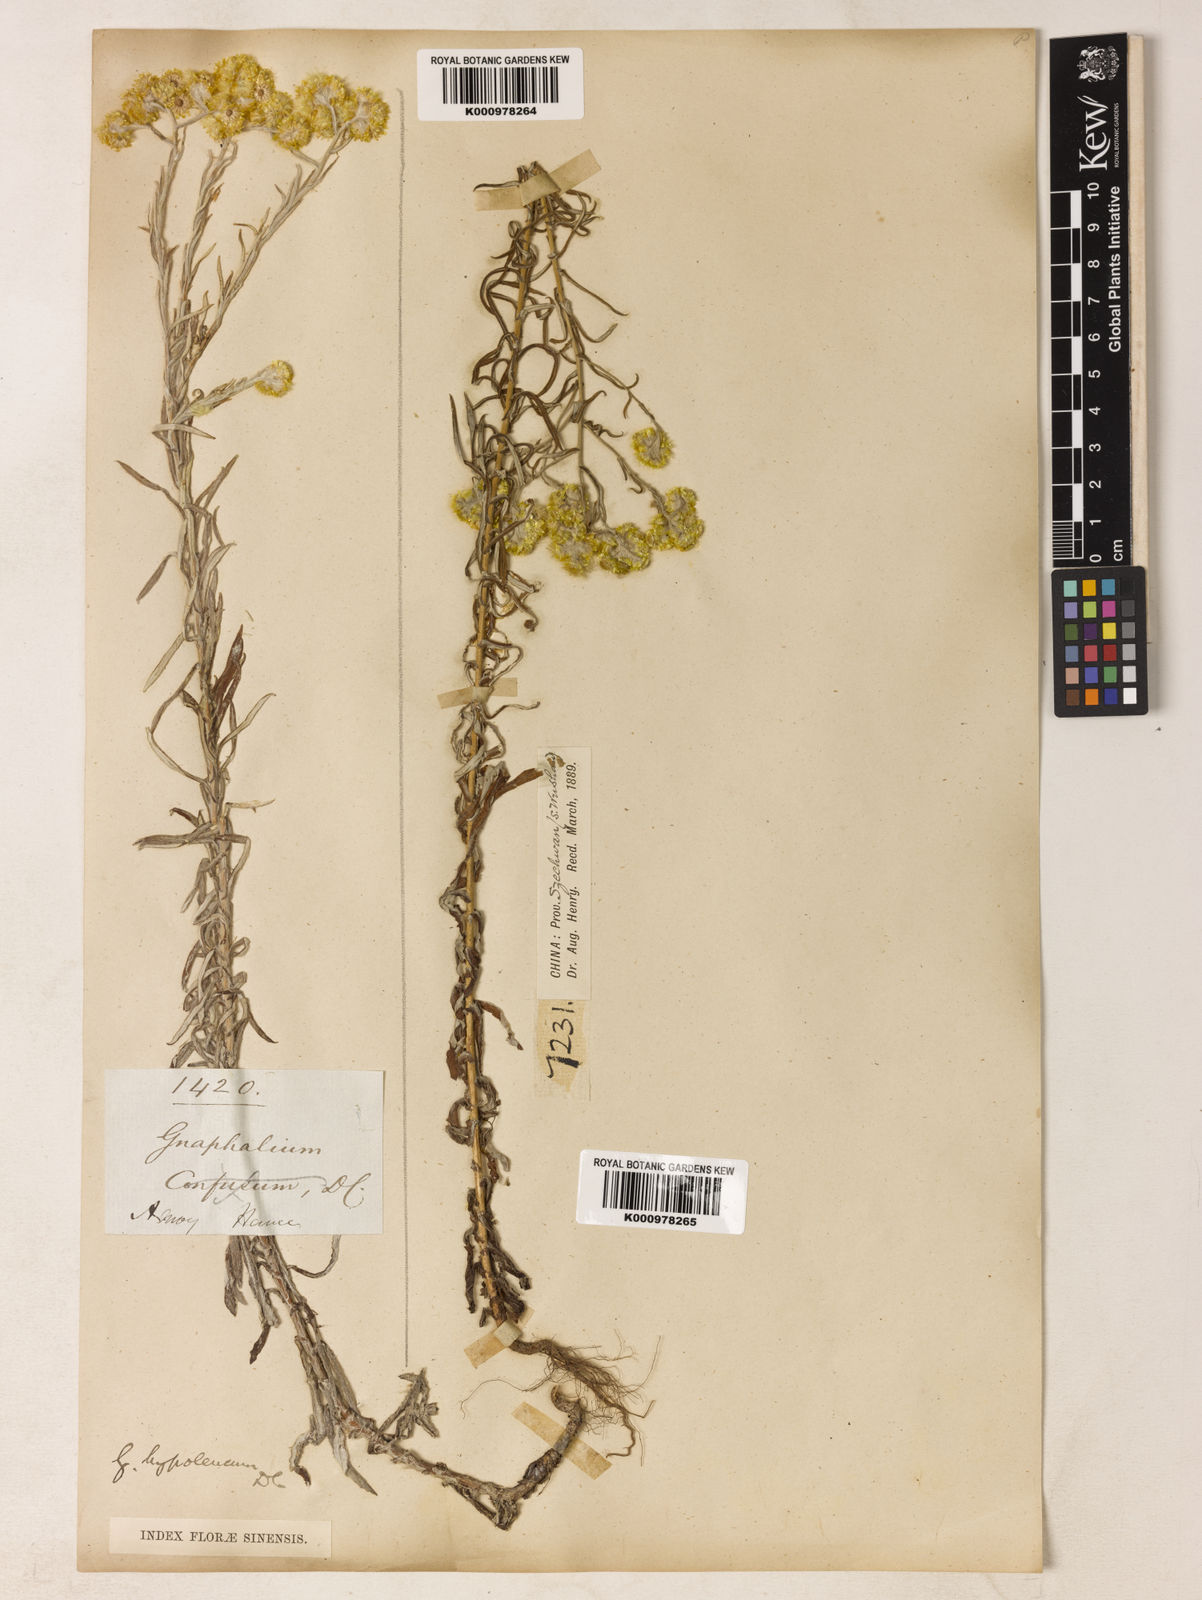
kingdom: Plantae
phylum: Tracheophyta
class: Magnoliopsida
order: Asterales
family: Asteraceae
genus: Pseudognaphalium
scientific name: Pseudognaphalium hypoleucum
